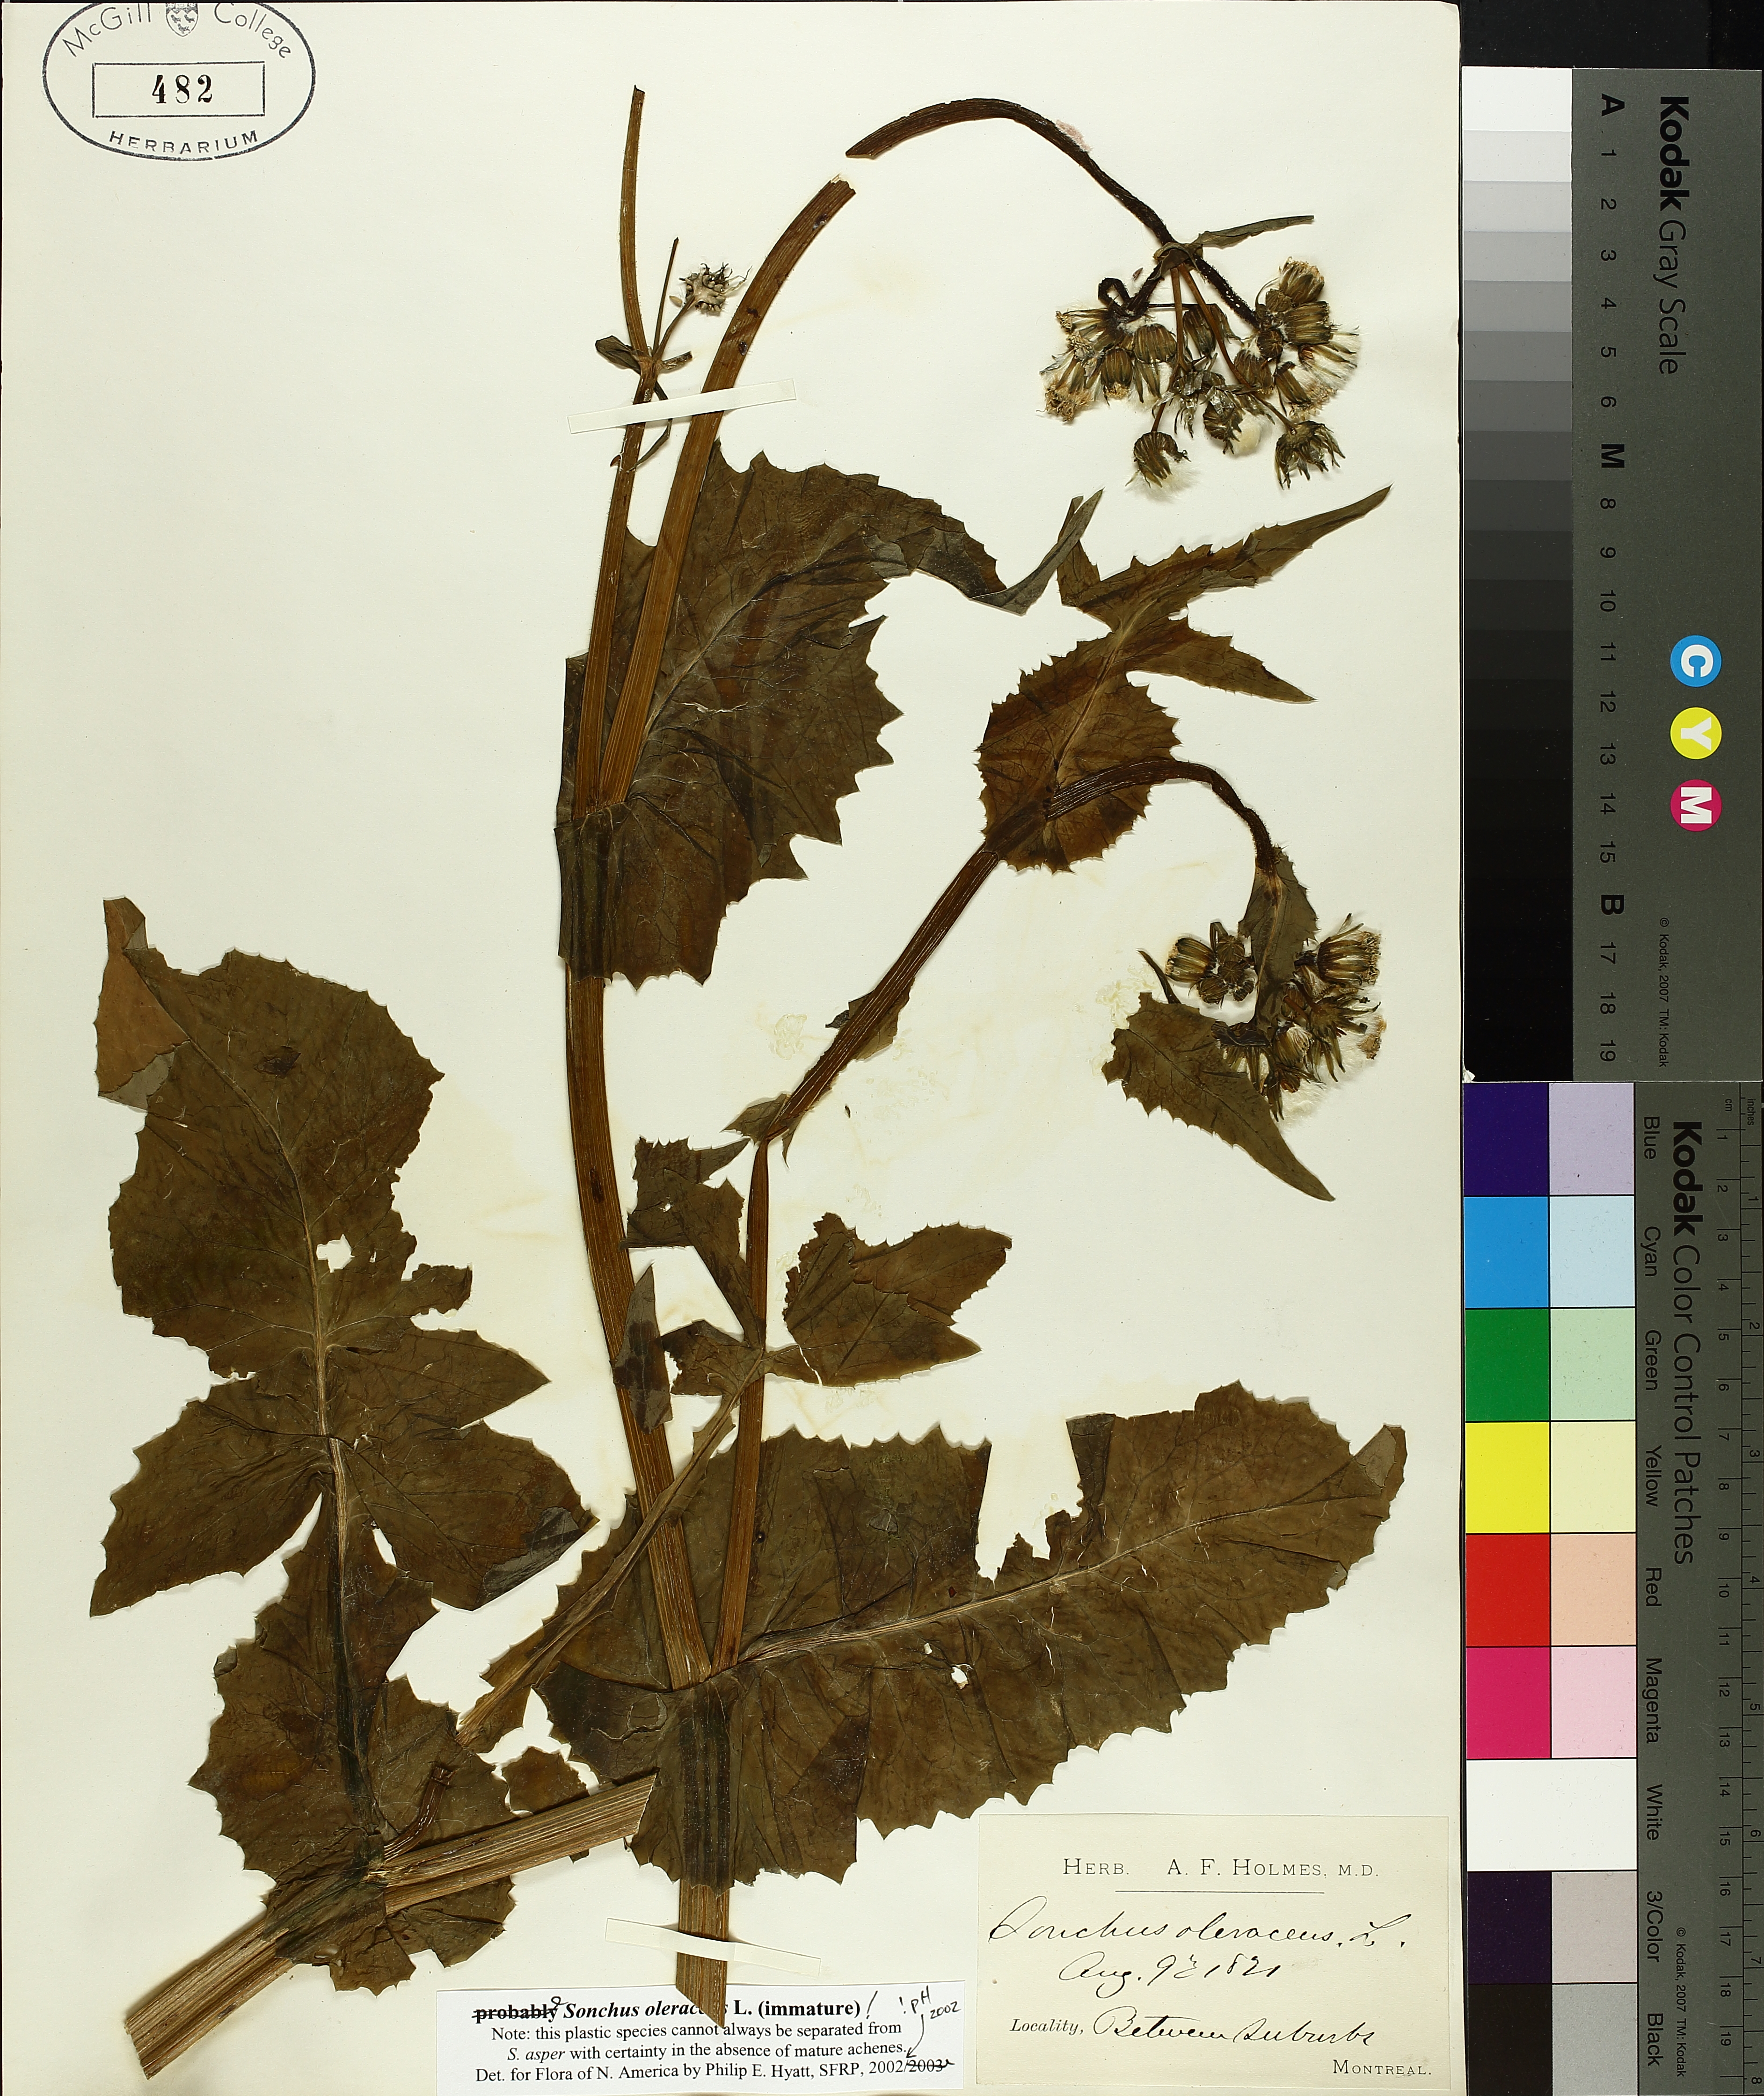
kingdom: Plantae
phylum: Tracheophyta
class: Magnoliopsida
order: Asterales
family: Asteraceae
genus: Sonchus
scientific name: Sonchus oleraceus
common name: Common sowthistle
